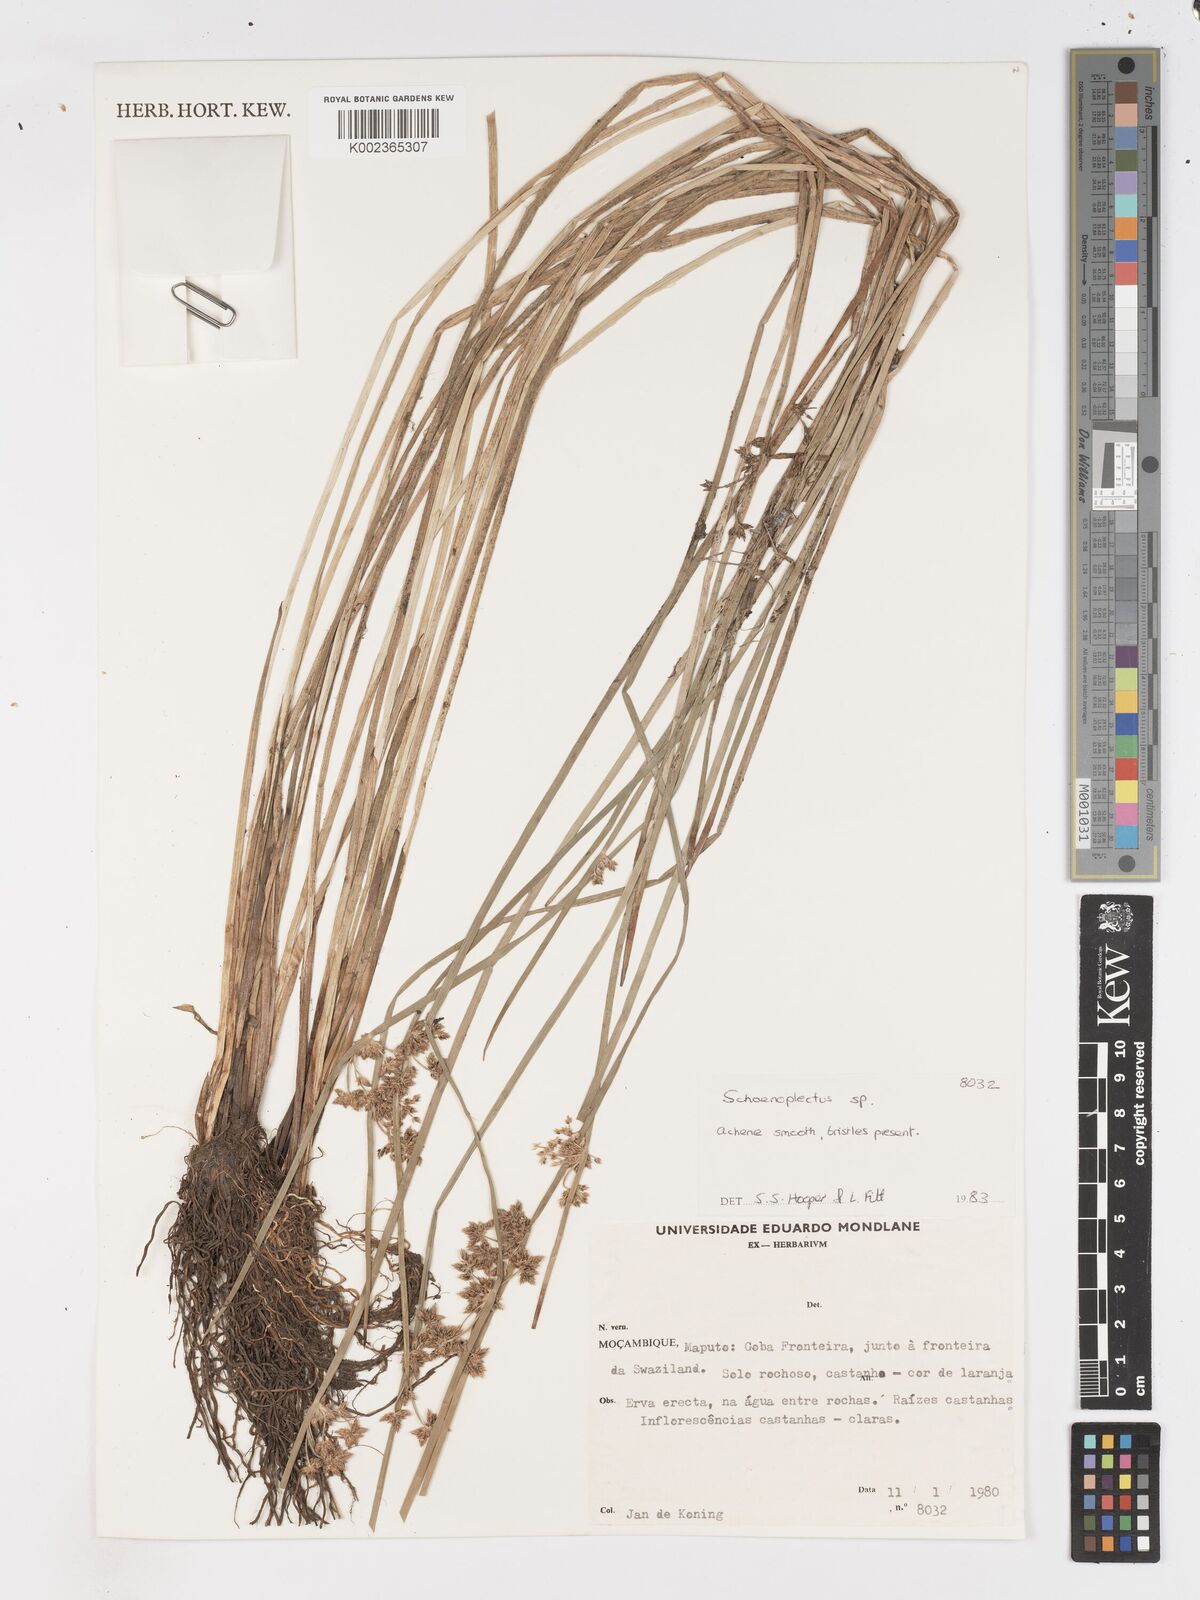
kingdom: Plantae
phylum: Tracheophyta
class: Liliopsida
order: Poales
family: Cyperaceae
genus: Schoenoplectus
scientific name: Schoenoplectus
